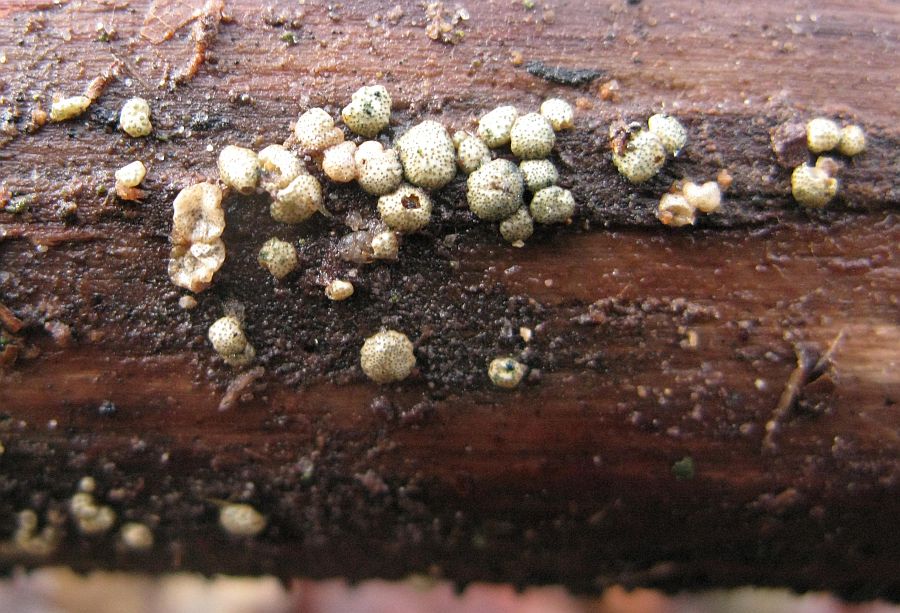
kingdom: Fungi
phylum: Ascomycota
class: Sordariomycetes
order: Hypocreales
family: Hypocreaceae
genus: Trichoderma
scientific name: Trichoderma strictipile
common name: grønprikket kødkerne
